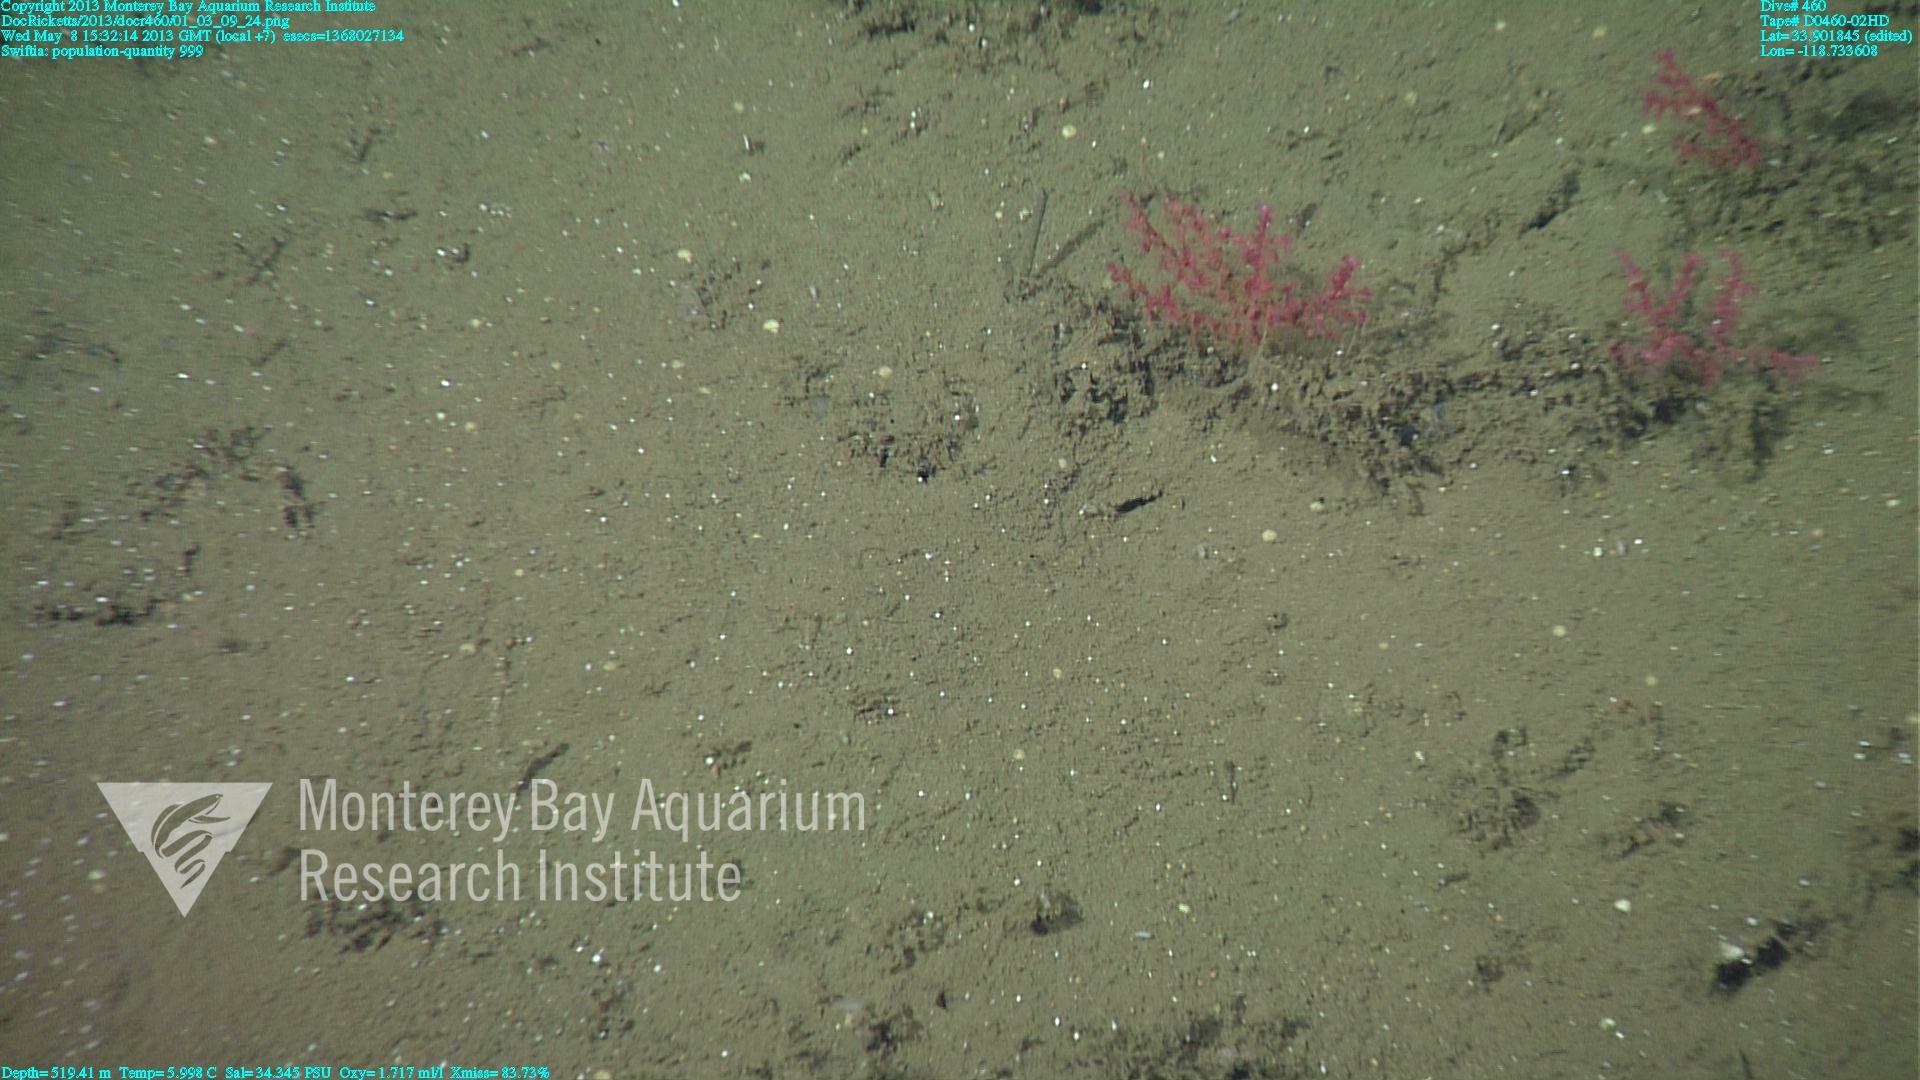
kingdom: Animalia
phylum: Cnidaria
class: Anthozoa
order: Malacalcyonacea
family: Plexauridae
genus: Swiftia
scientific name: Swiftia
